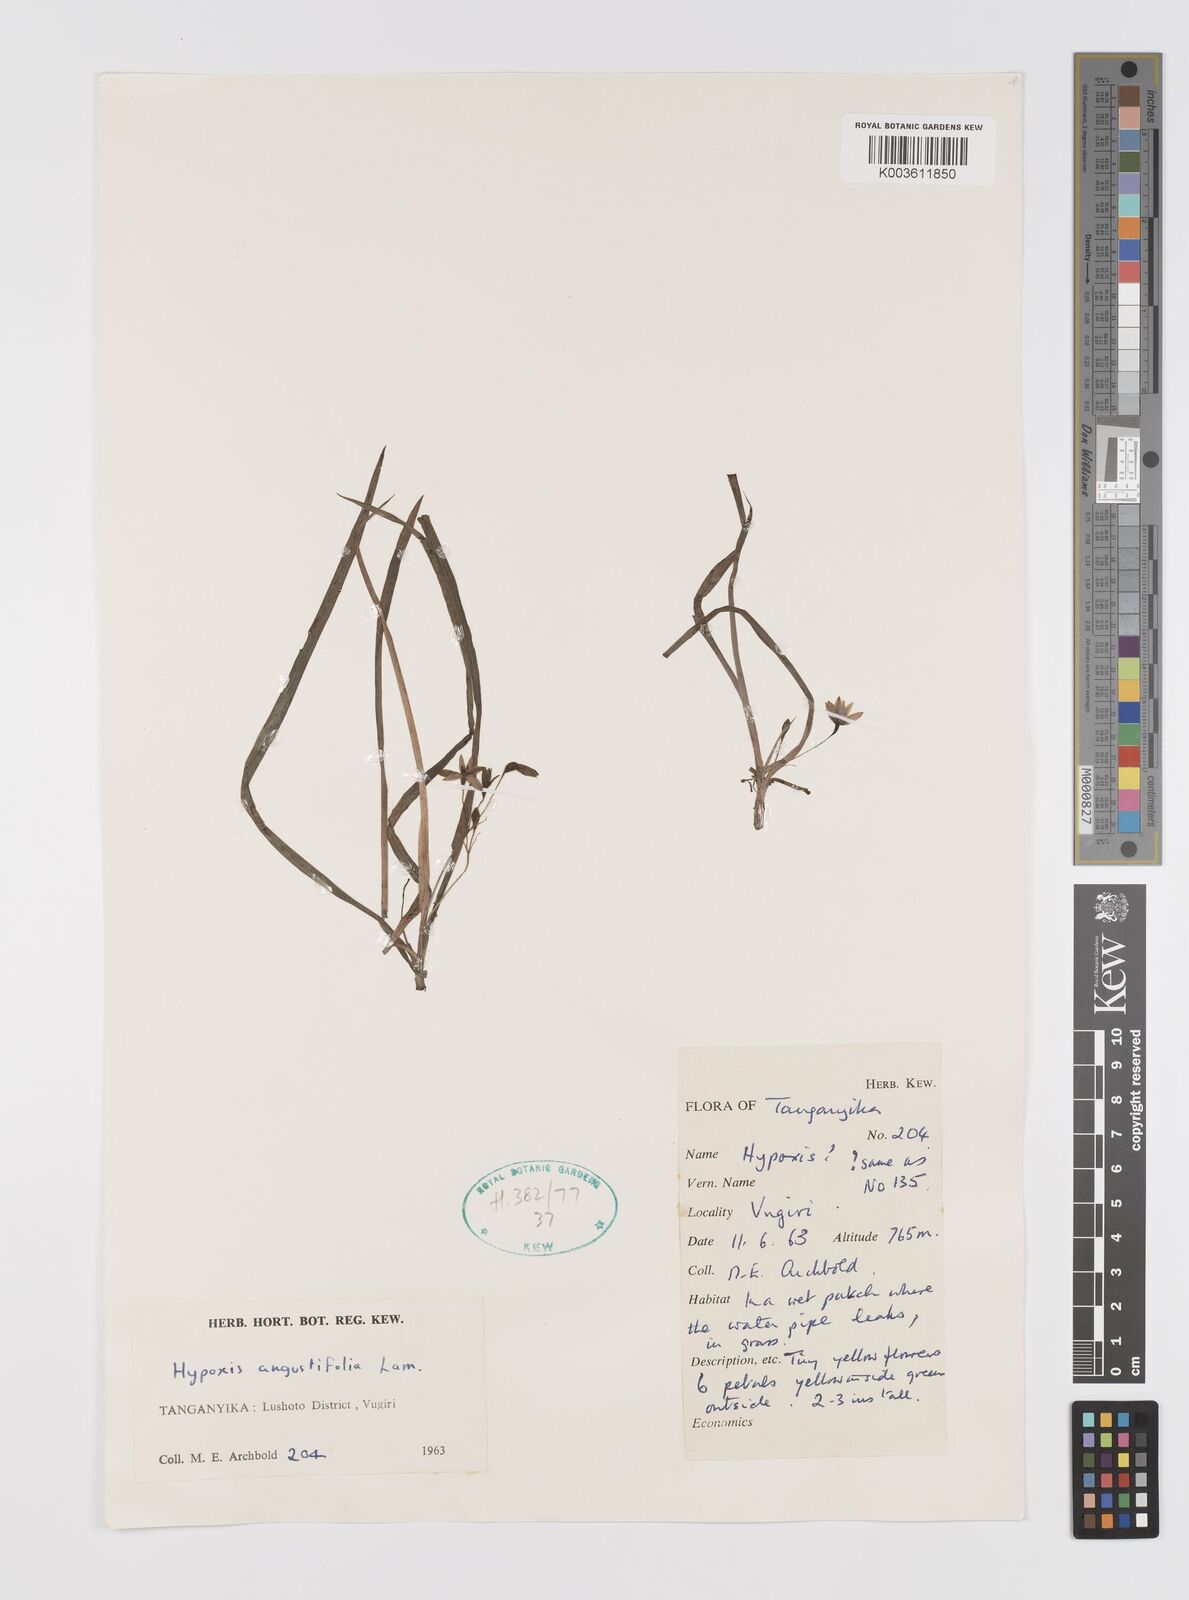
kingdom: Plantae
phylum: Tracheophyta
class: Liliopsida
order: Asparagales
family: Hypoxidaceae
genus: Hypoxis
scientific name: Hypoxis angustifolia
